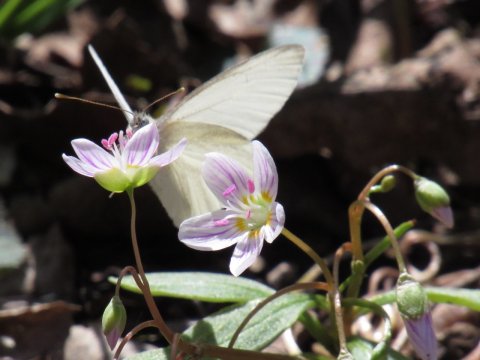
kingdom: Animalia
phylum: Arthropoda
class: Insecta
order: Lepidoptera
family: Pieridae
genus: Pieris
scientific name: Pieris virginiensis
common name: West Virginia White
